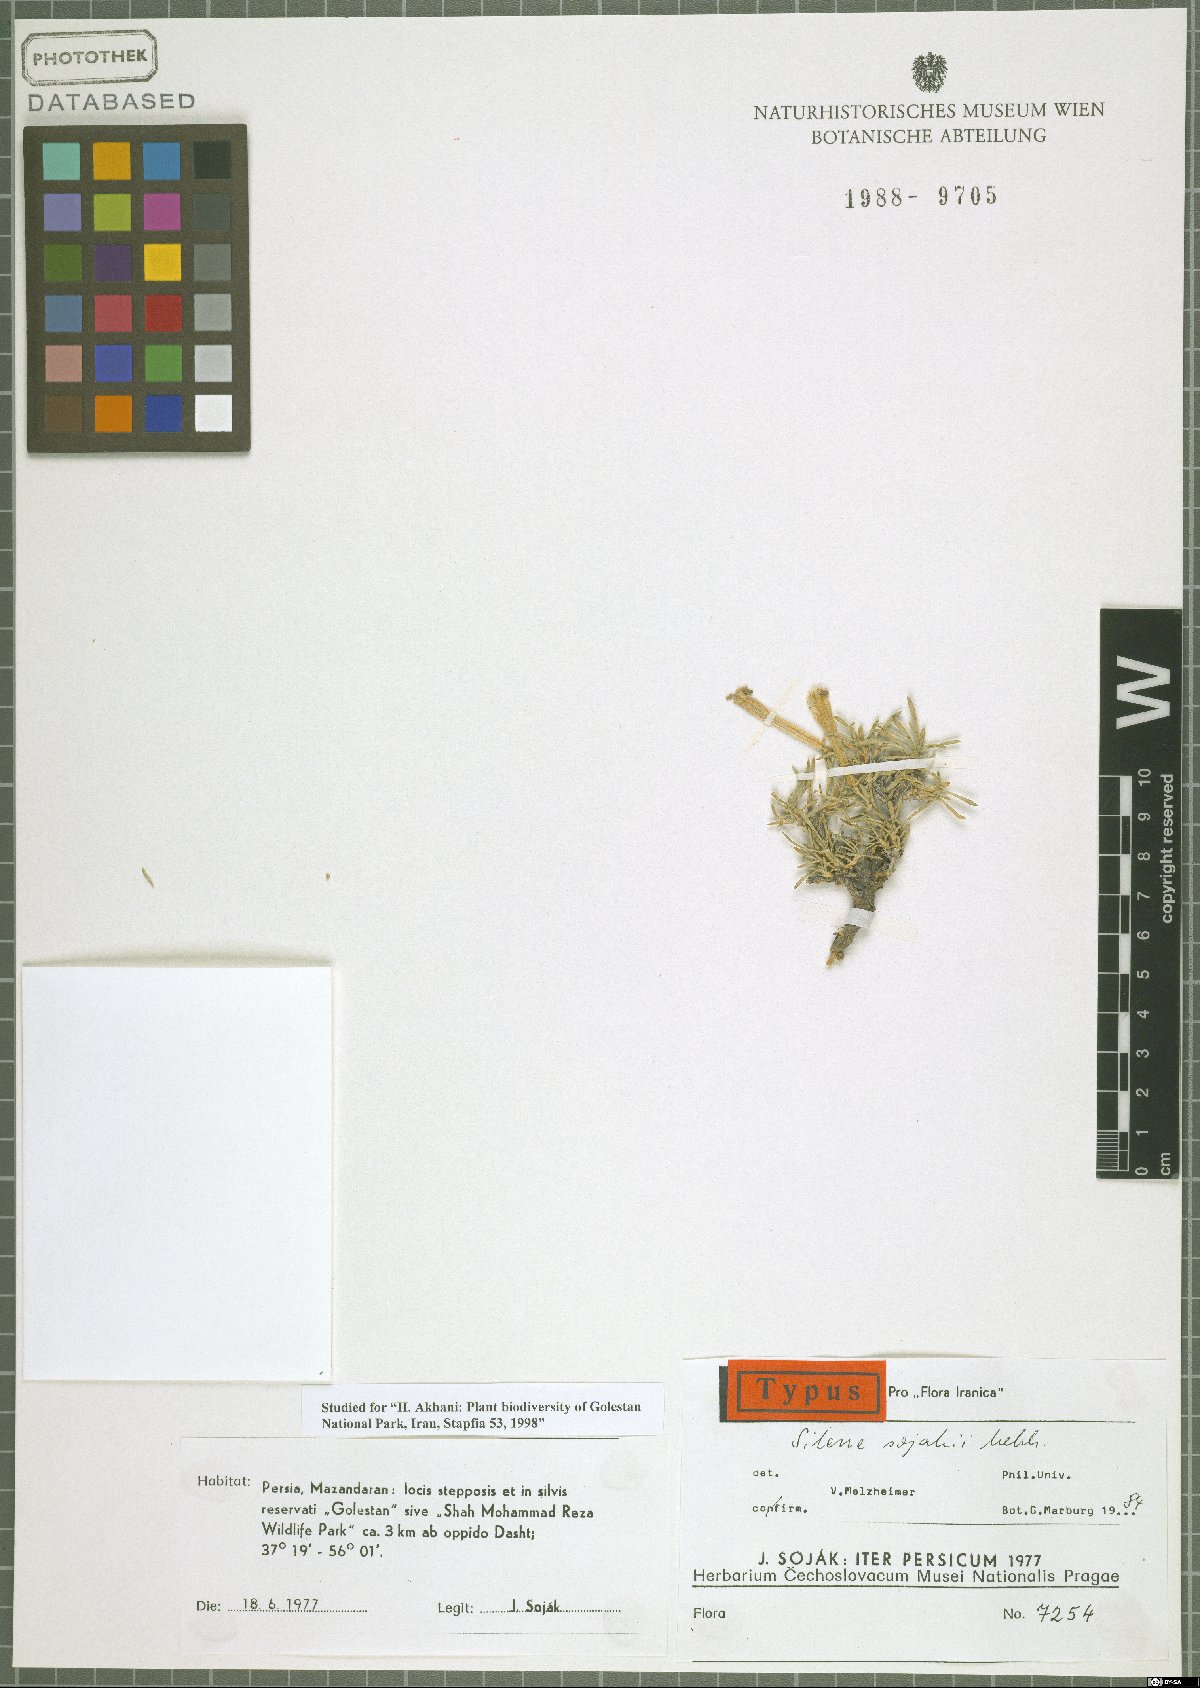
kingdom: Plantae
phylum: Tracheophyta
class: Magnoliopsida
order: Caryophyllales
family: Caryophyllaceae
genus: Silene
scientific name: Silene sojakii
